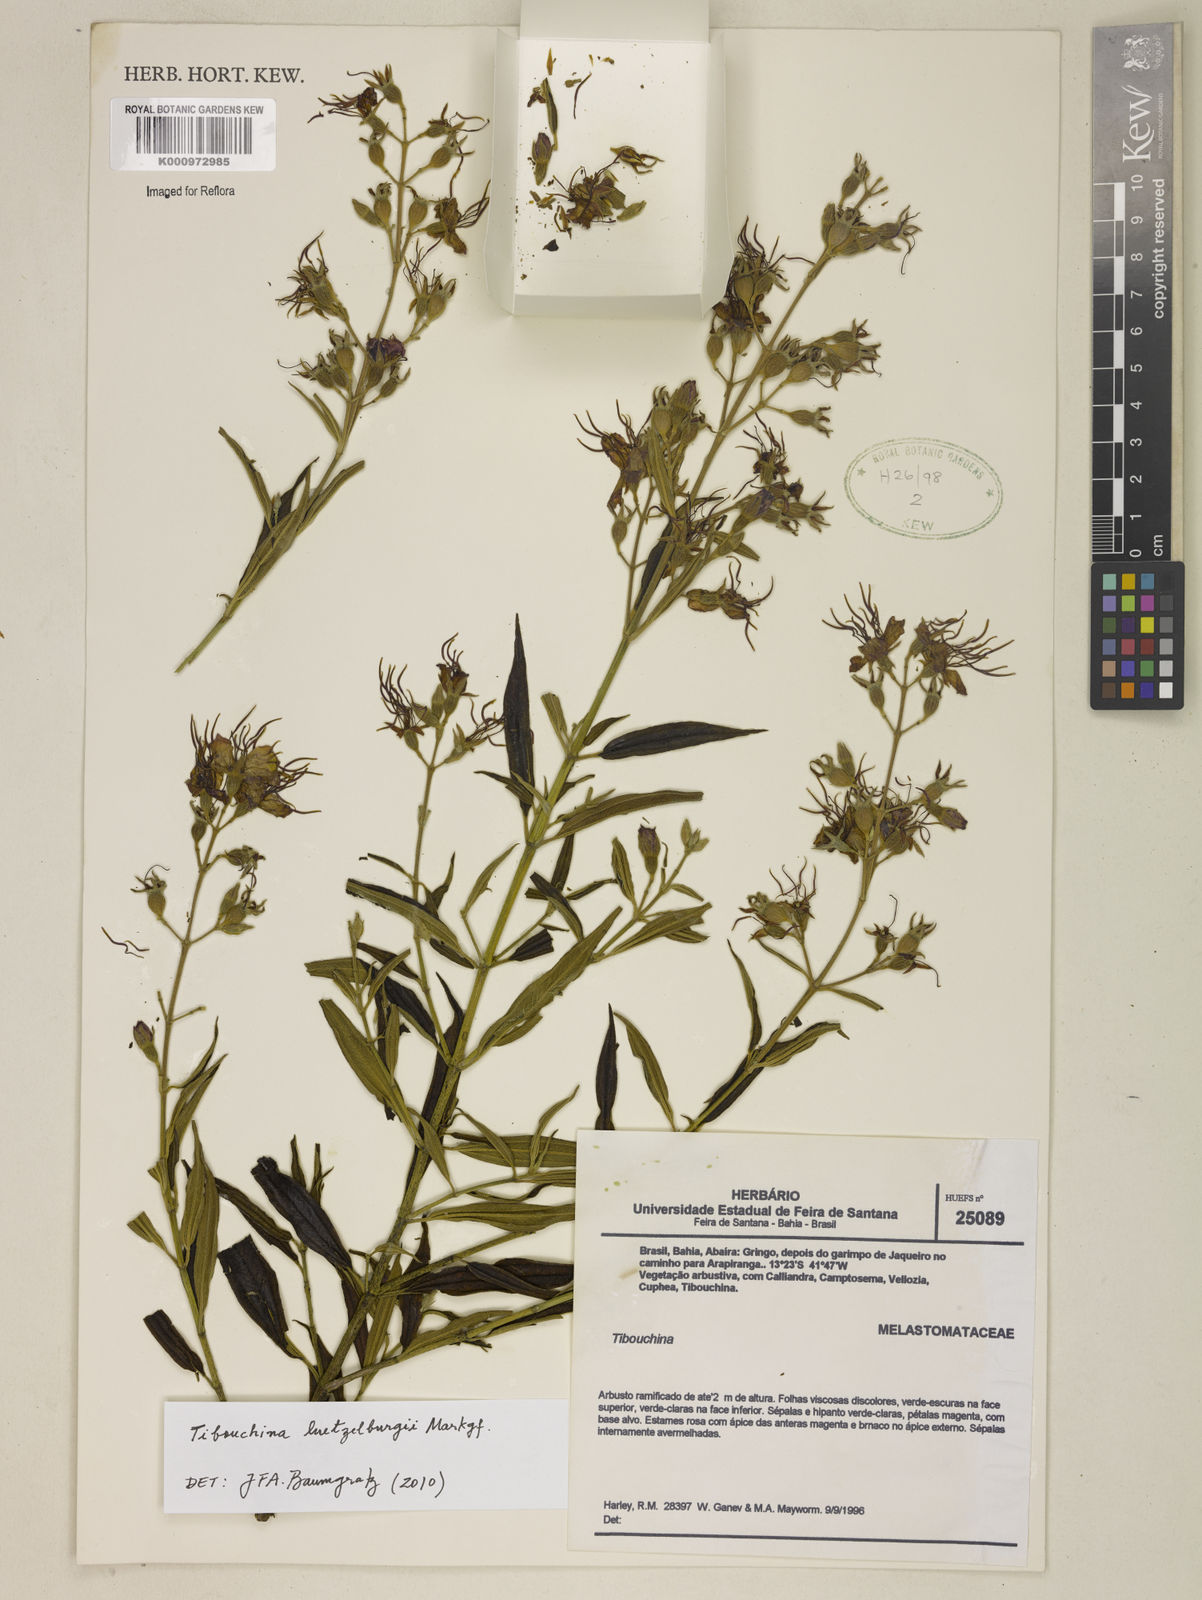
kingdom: Plantae
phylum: Tracheophyta
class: Magnoliopsida
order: Myrtales
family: Melastomataceae
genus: Pleroma
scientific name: Pleroma luetzelburgii
